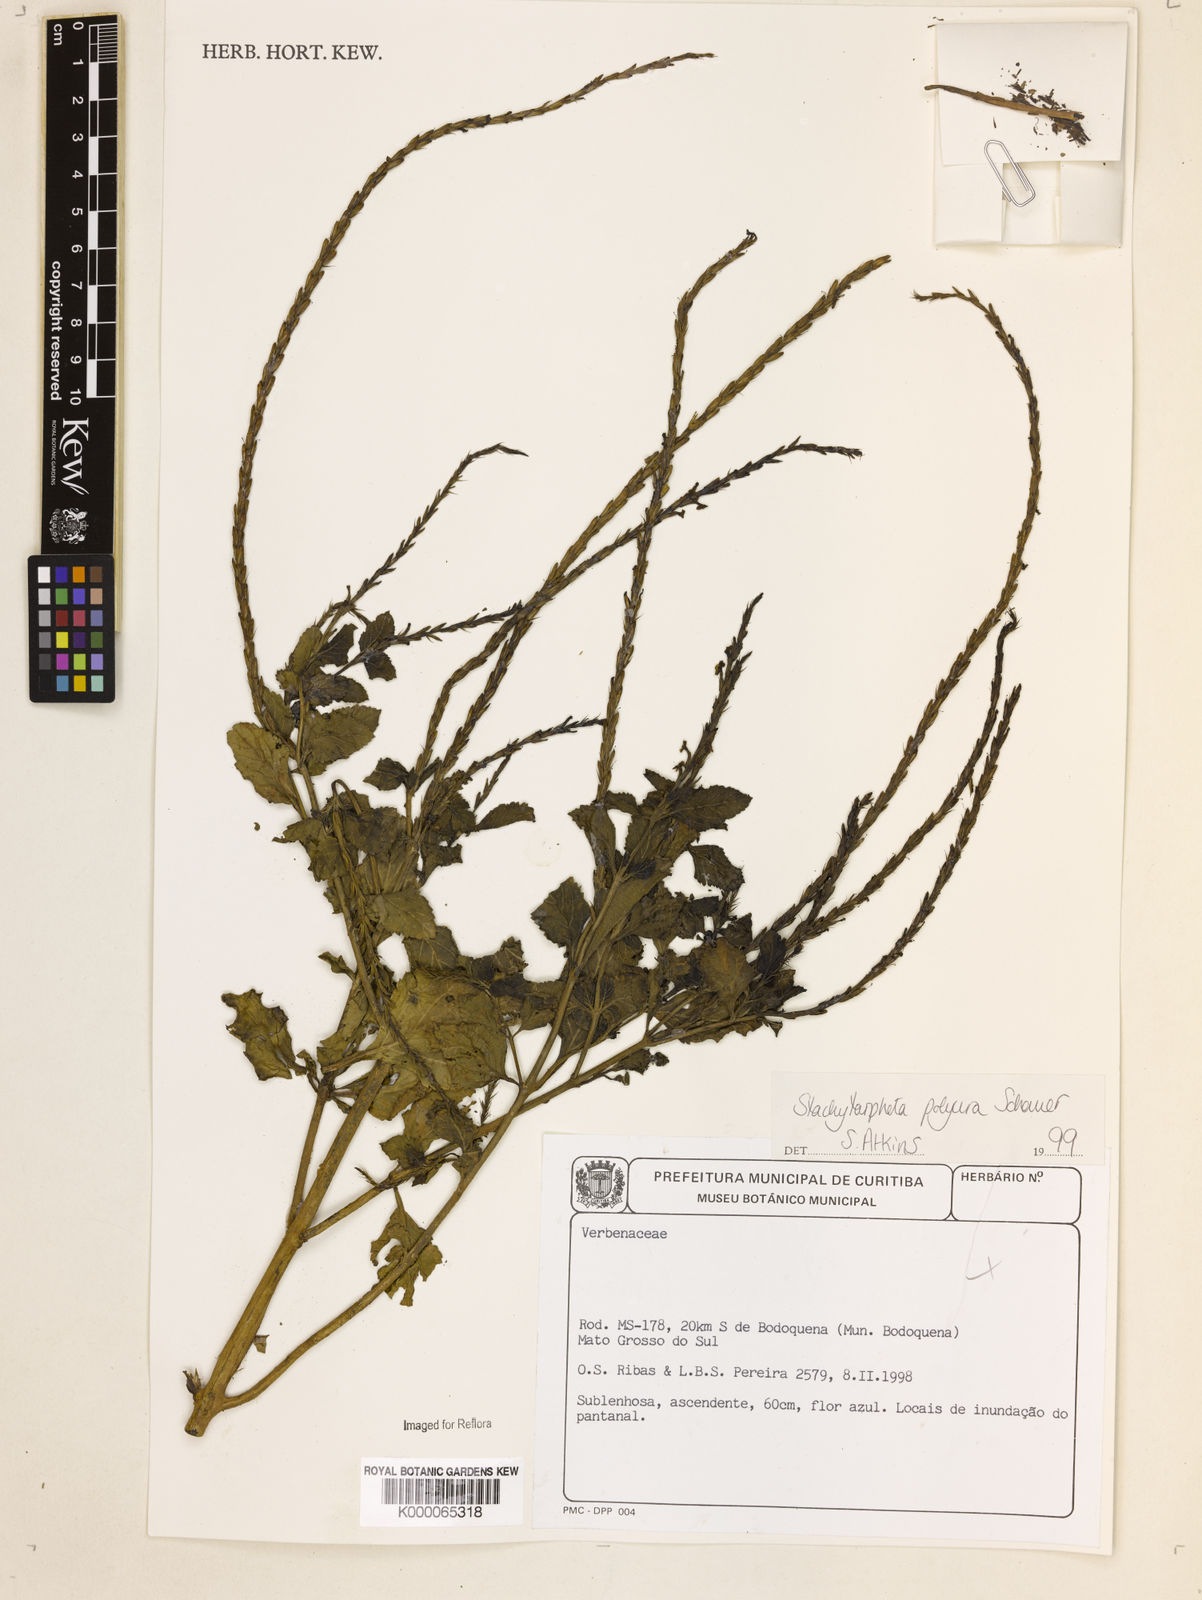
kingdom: Plantae
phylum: Tracheophyta
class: Magnoliopsida
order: Lamiales
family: Verbenaceae
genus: Stachytarpheta
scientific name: Stachytarpheta polyura
